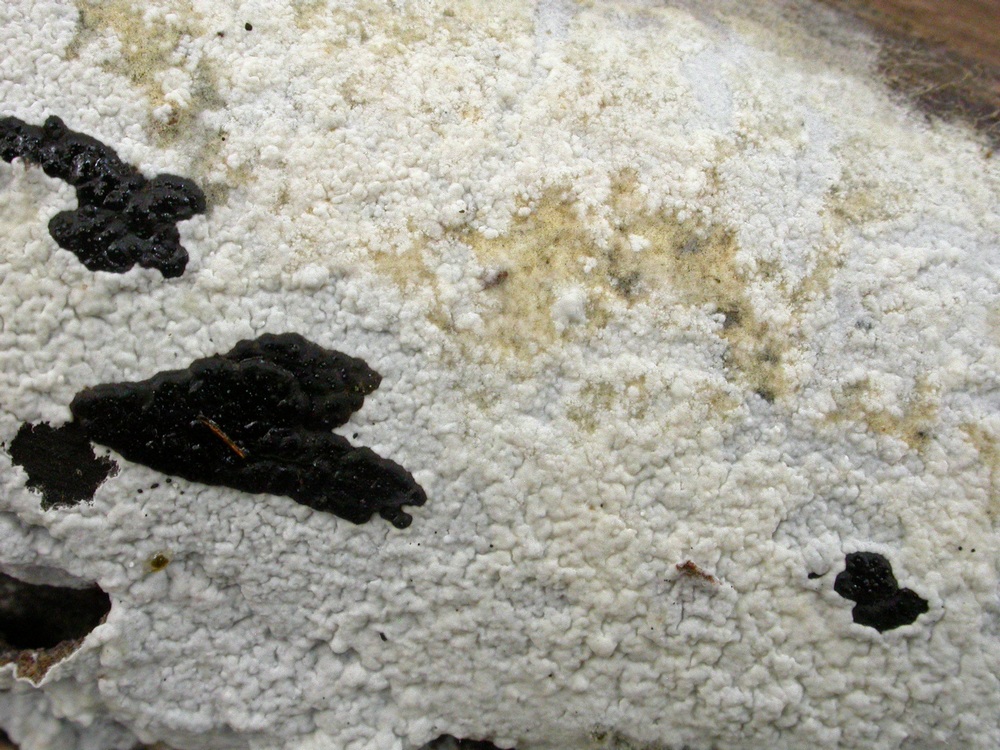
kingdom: Fungi
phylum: Basidiomycota
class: Agaricomycetes
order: Atheliales
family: Atheliaceae
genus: Athelia
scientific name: Athelia epiphylla
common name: almindelig barkhinde
